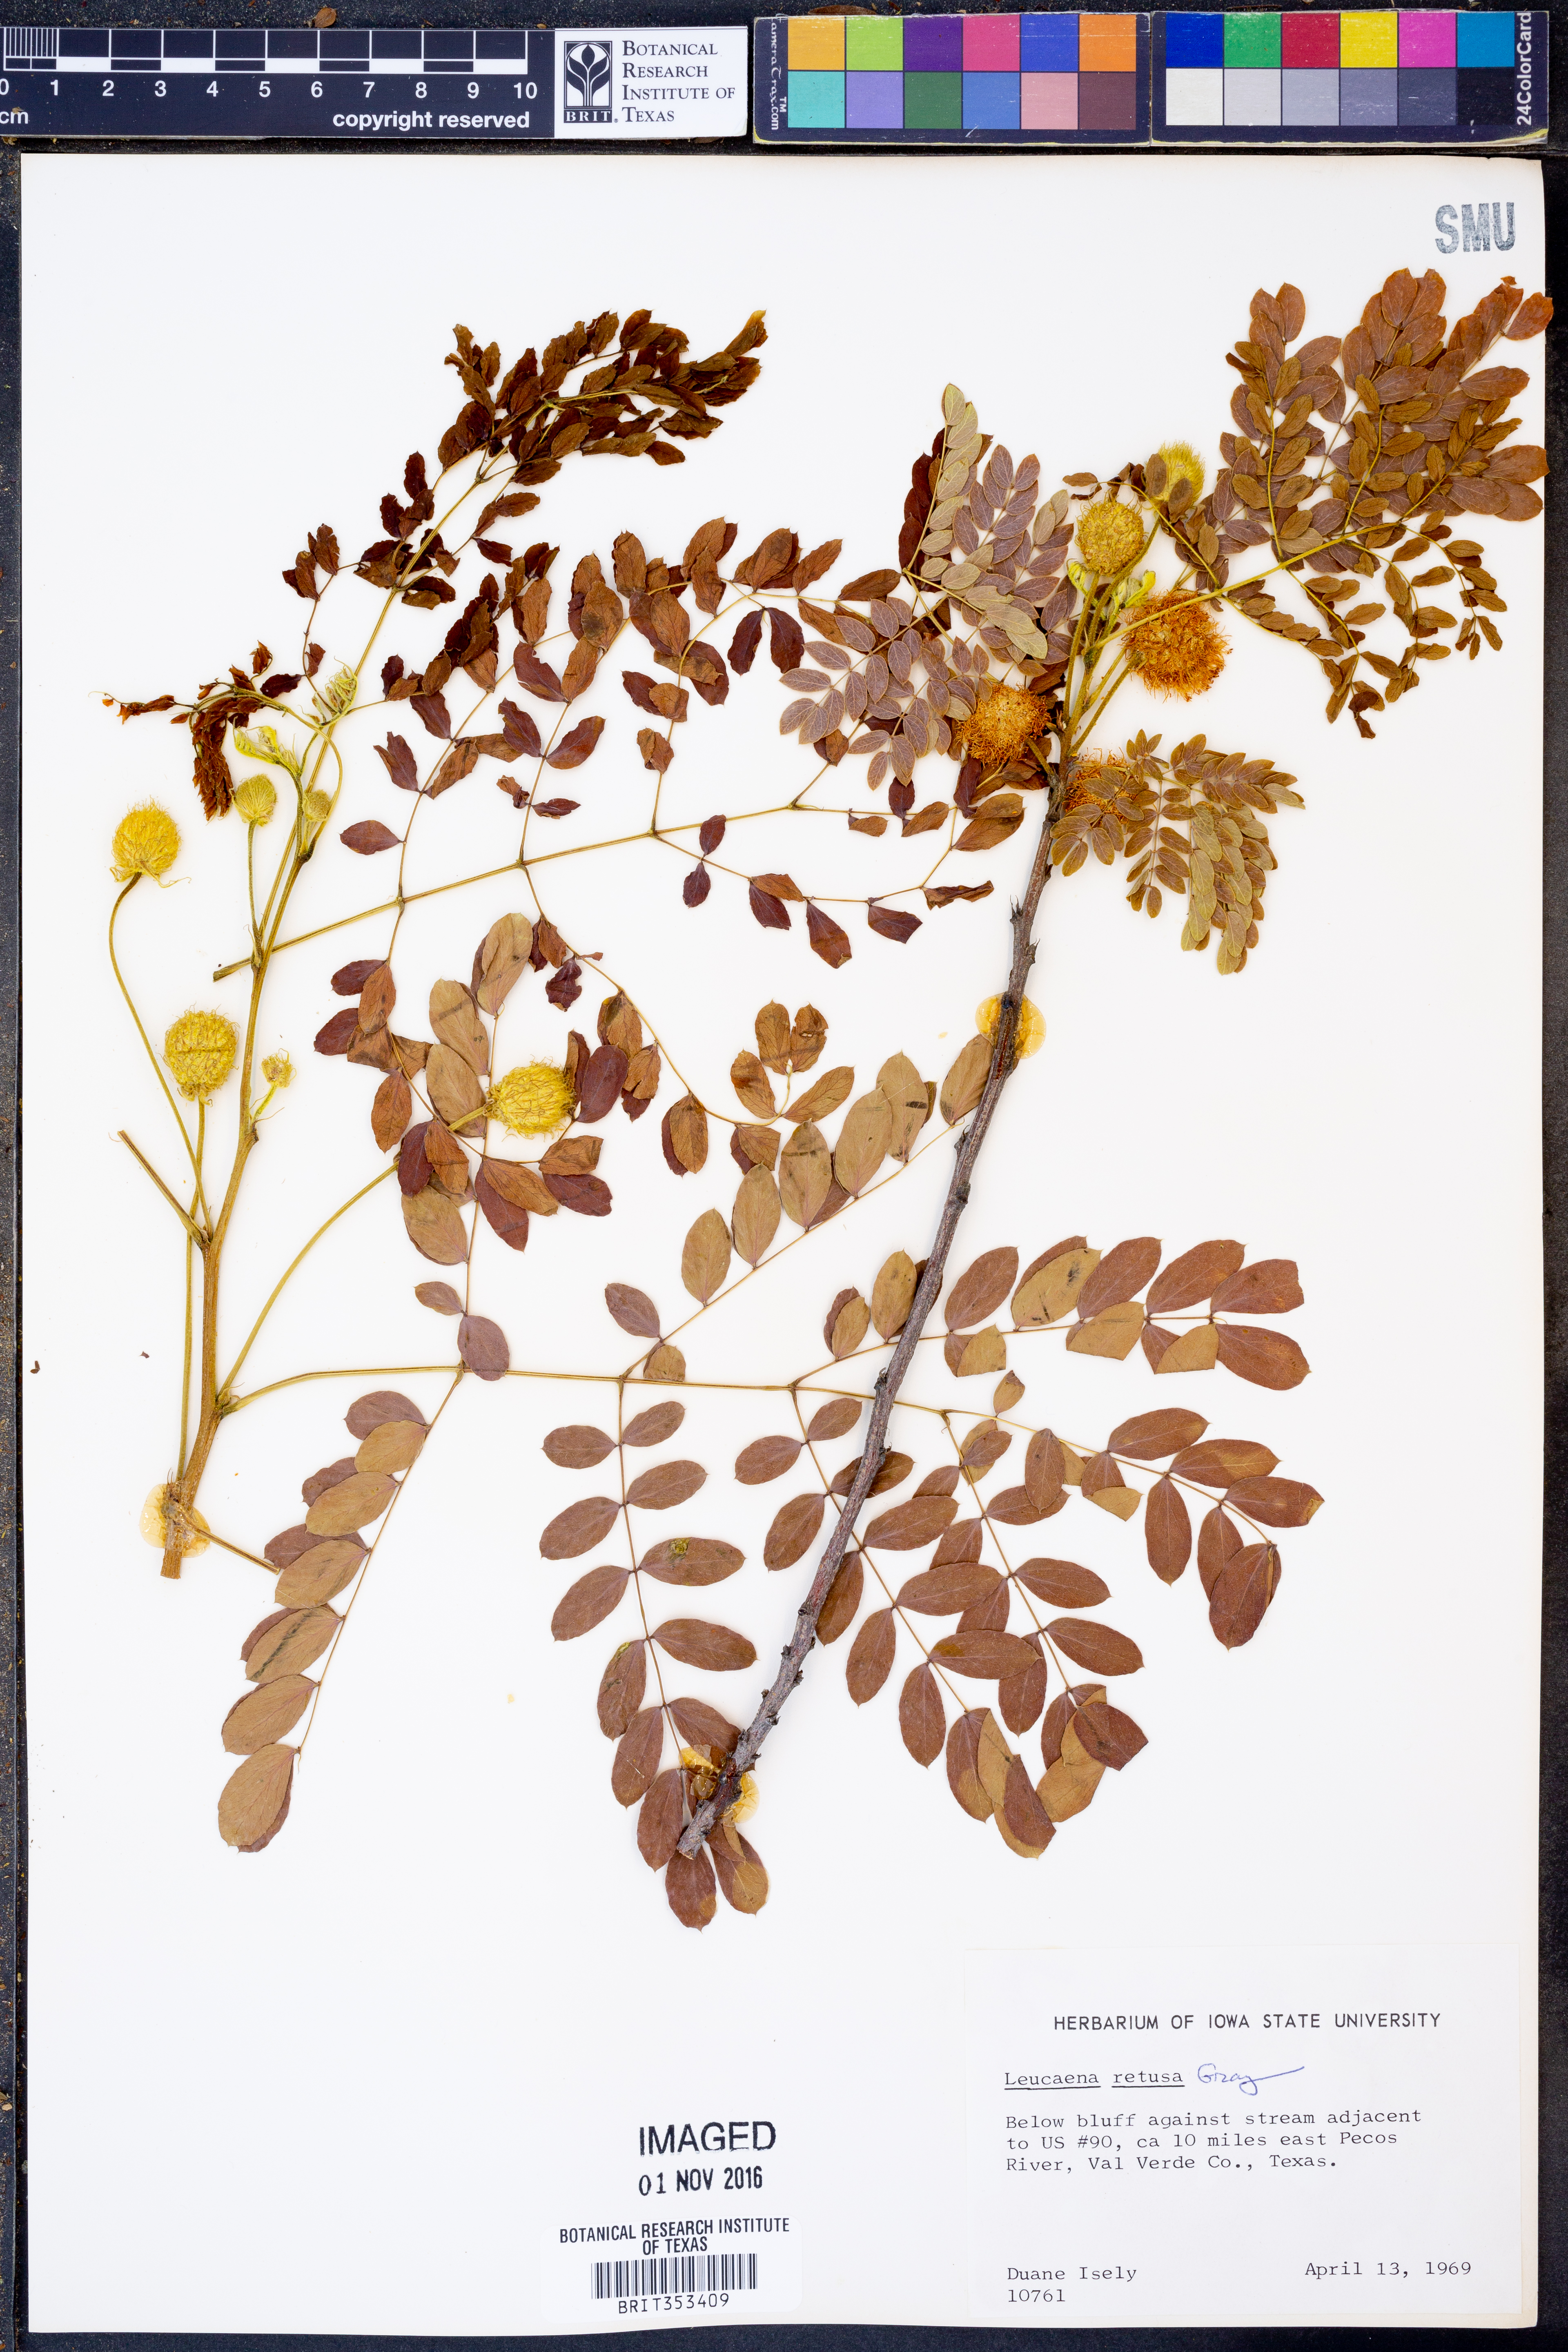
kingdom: Plantae
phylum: Tracheophyta
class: Magnoliopsida
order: Fabales
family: Fabaceae
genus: Leucaena
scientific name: Leucaena retusa
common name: Littleleaf leadtree
